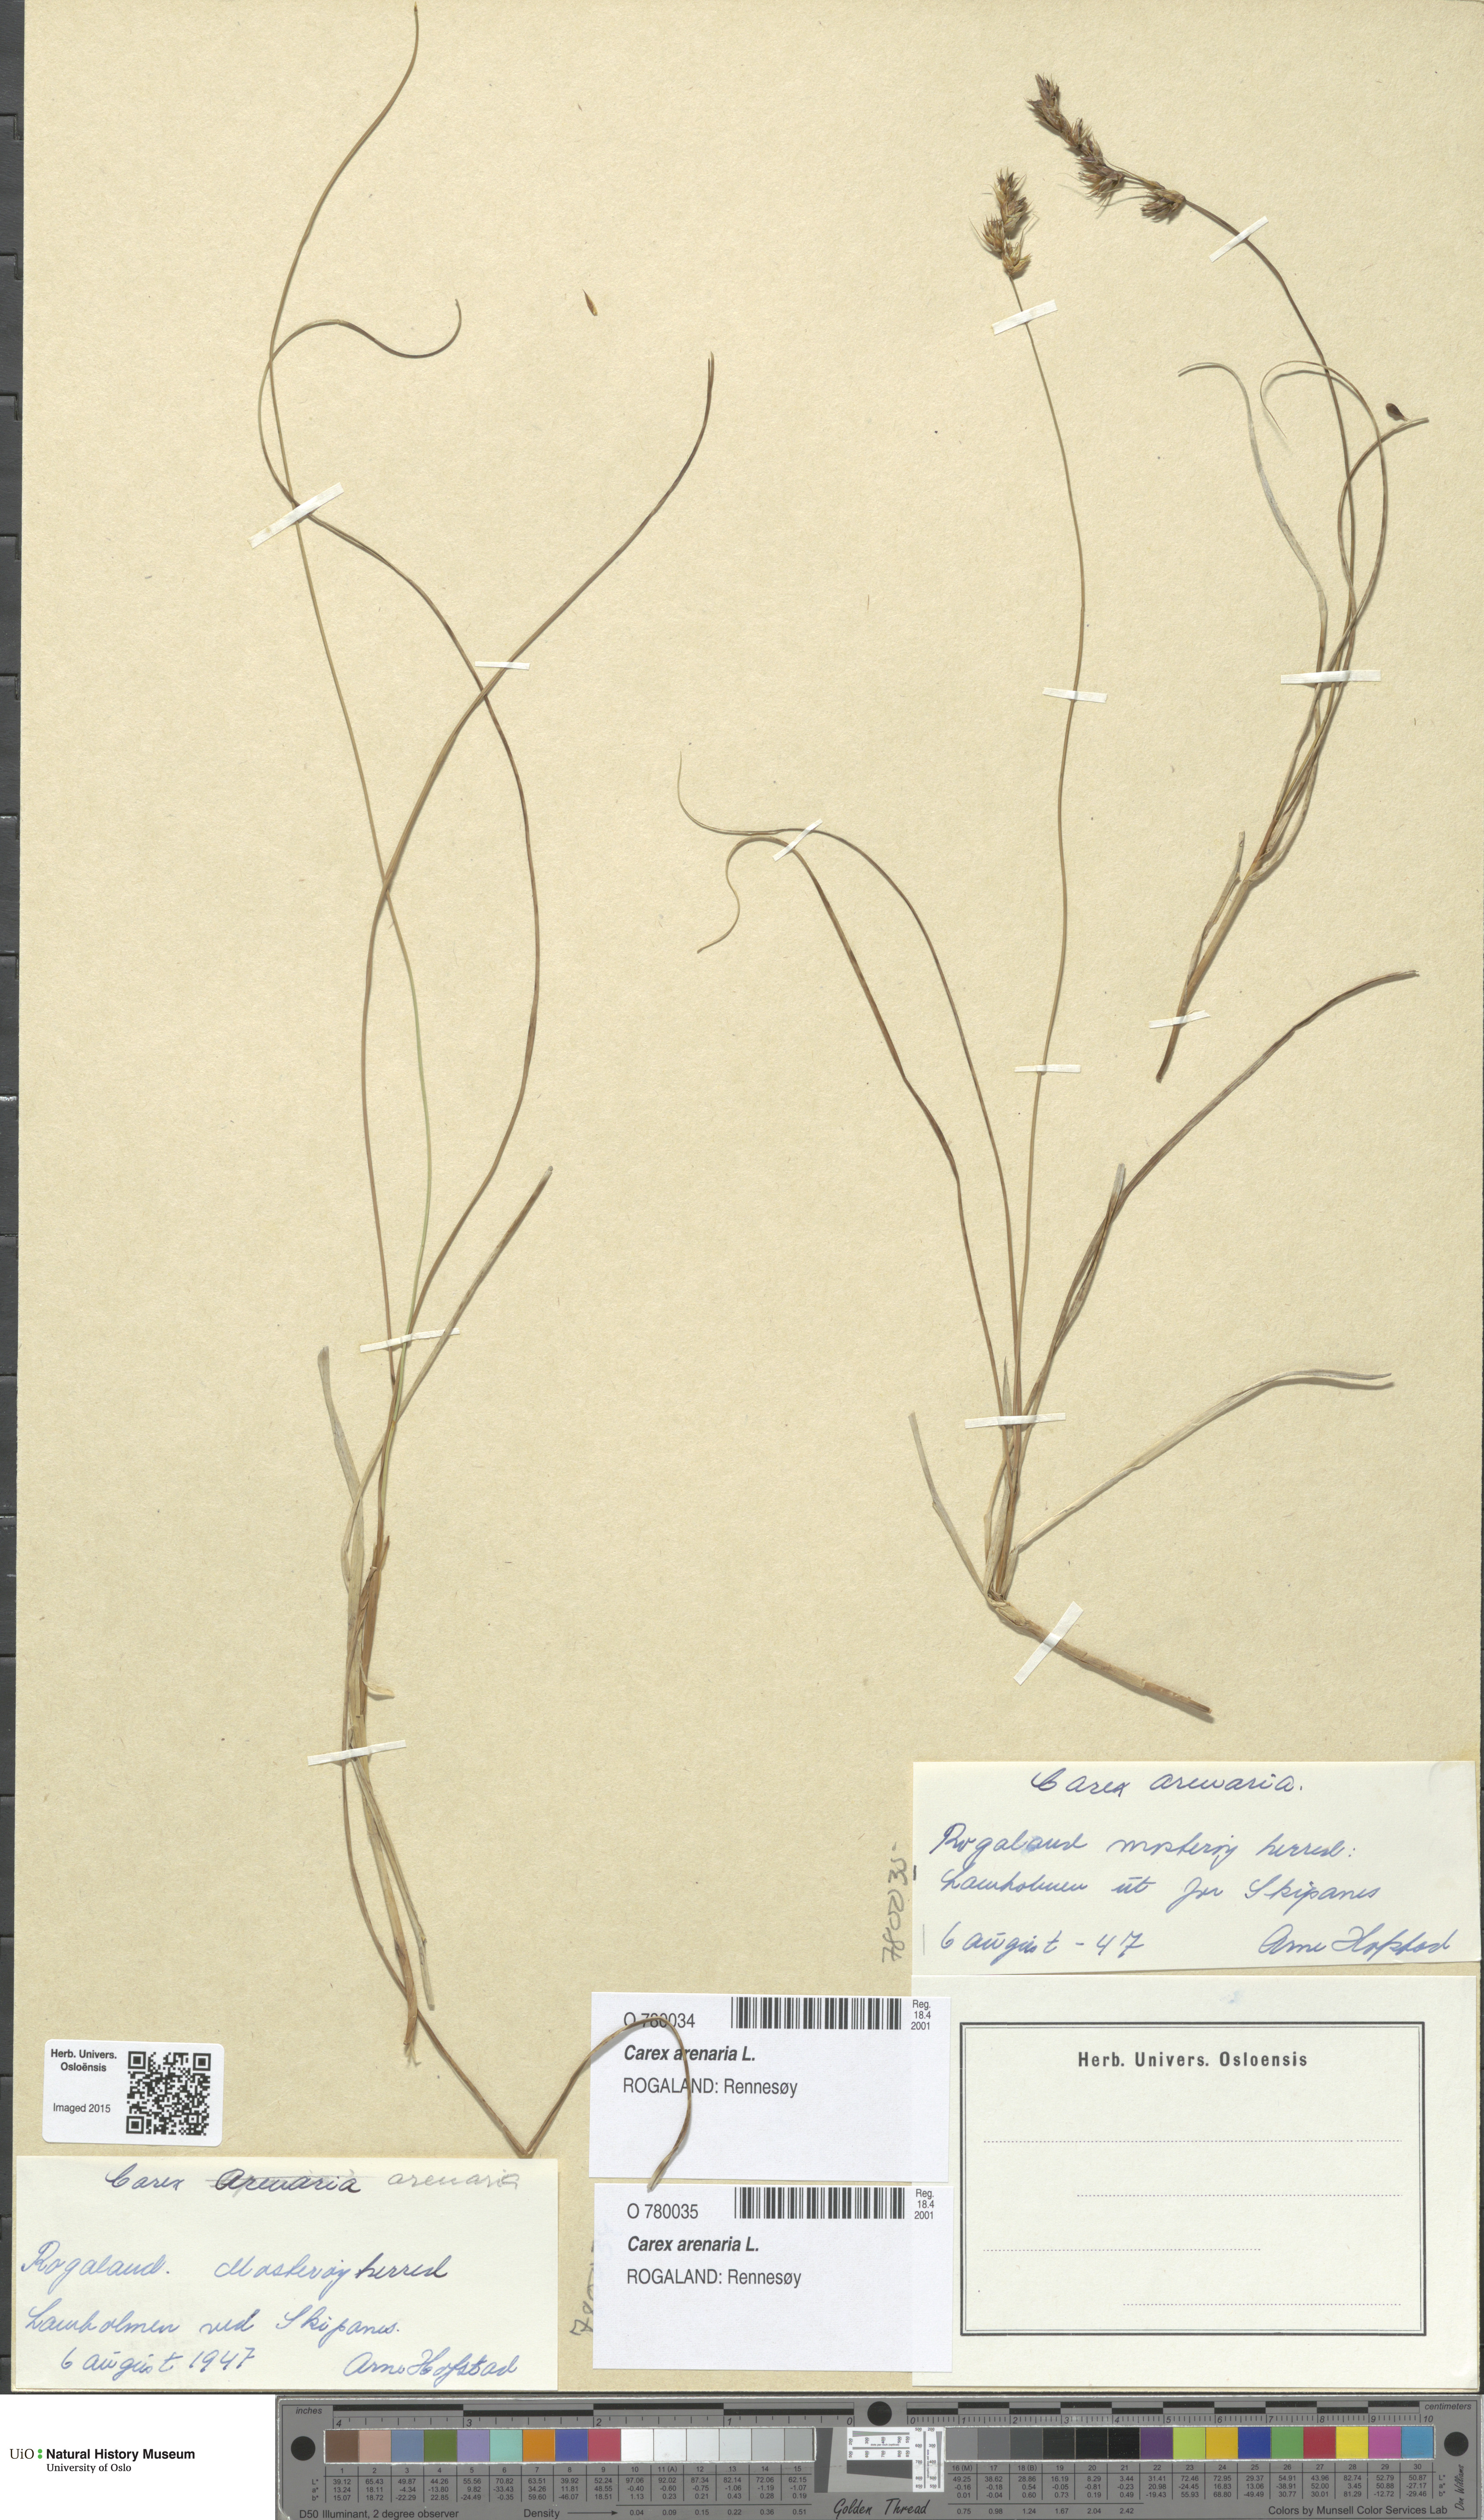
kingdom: Plantae
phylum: Tracheophyta
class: Liliopsida
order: Poales
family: Cyperaceae
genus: Carex
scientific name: Carex arenaria
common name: Sand sedge
